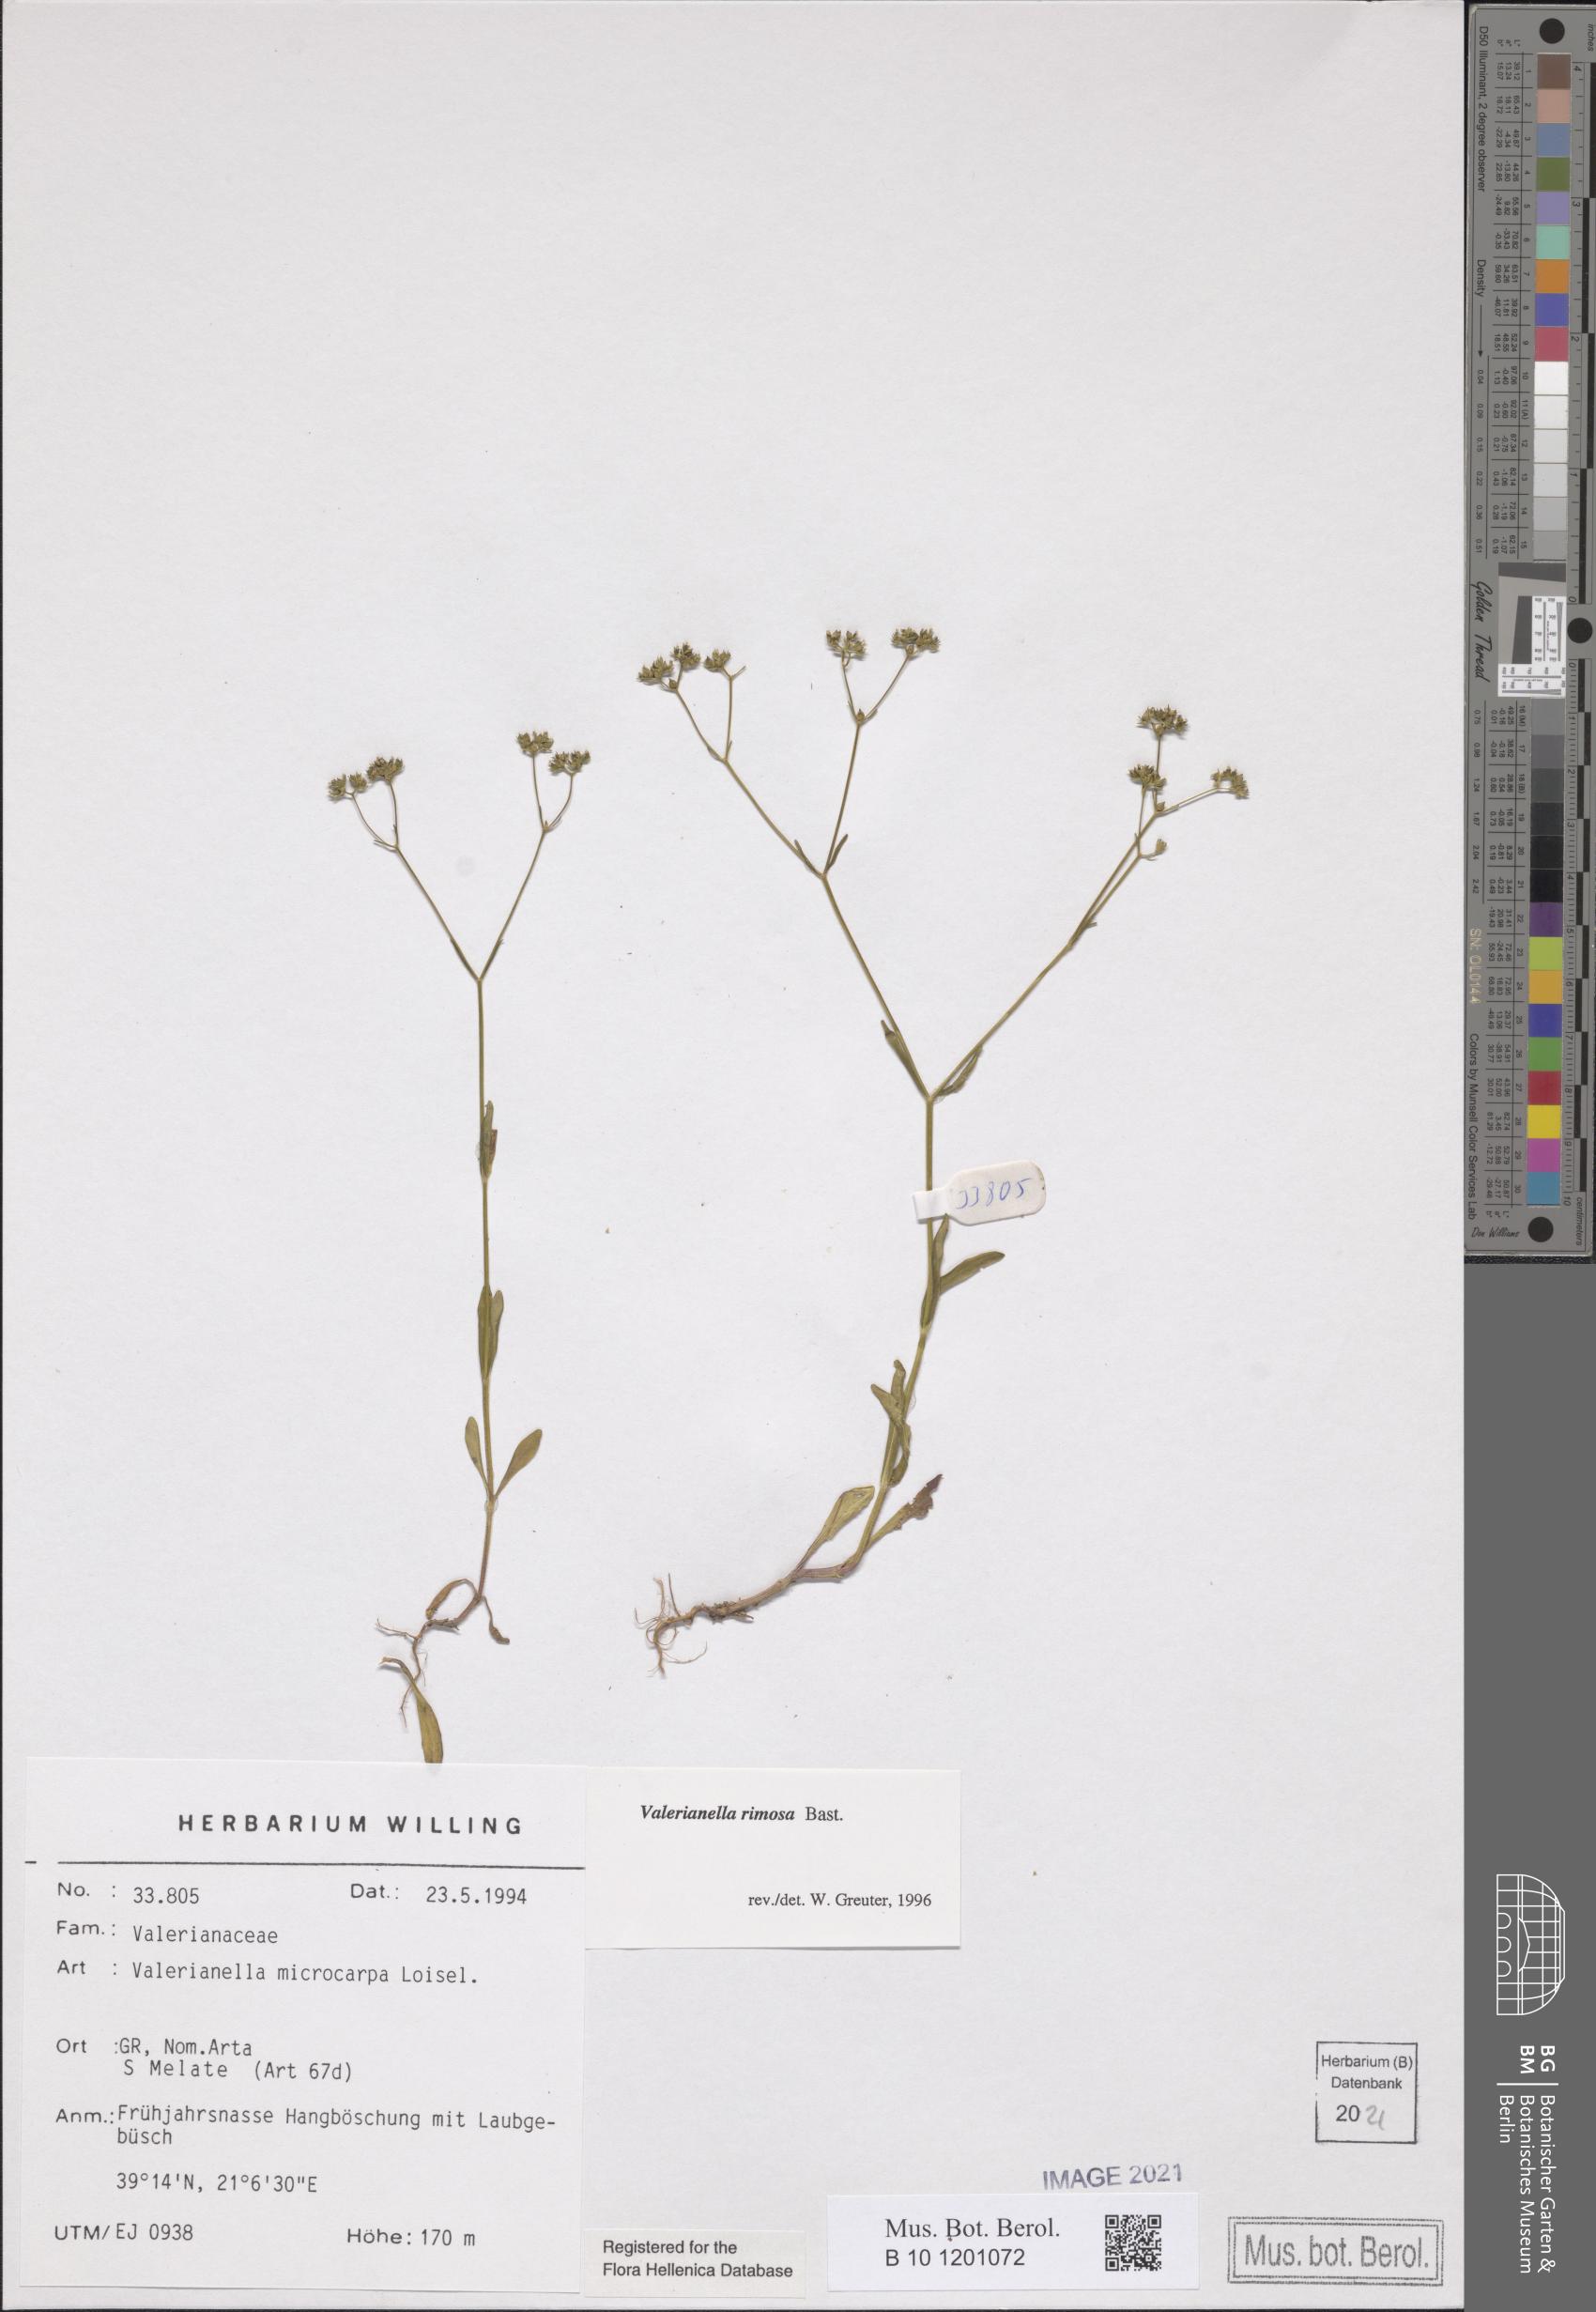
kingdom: Plantae
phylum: Tracheophyta
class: Magnoliopsida
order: Dipsacales
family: Caprifoliaceae
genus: Valerianella
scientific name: Valerianella rimosa
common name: Broad-fruited cornsalad
